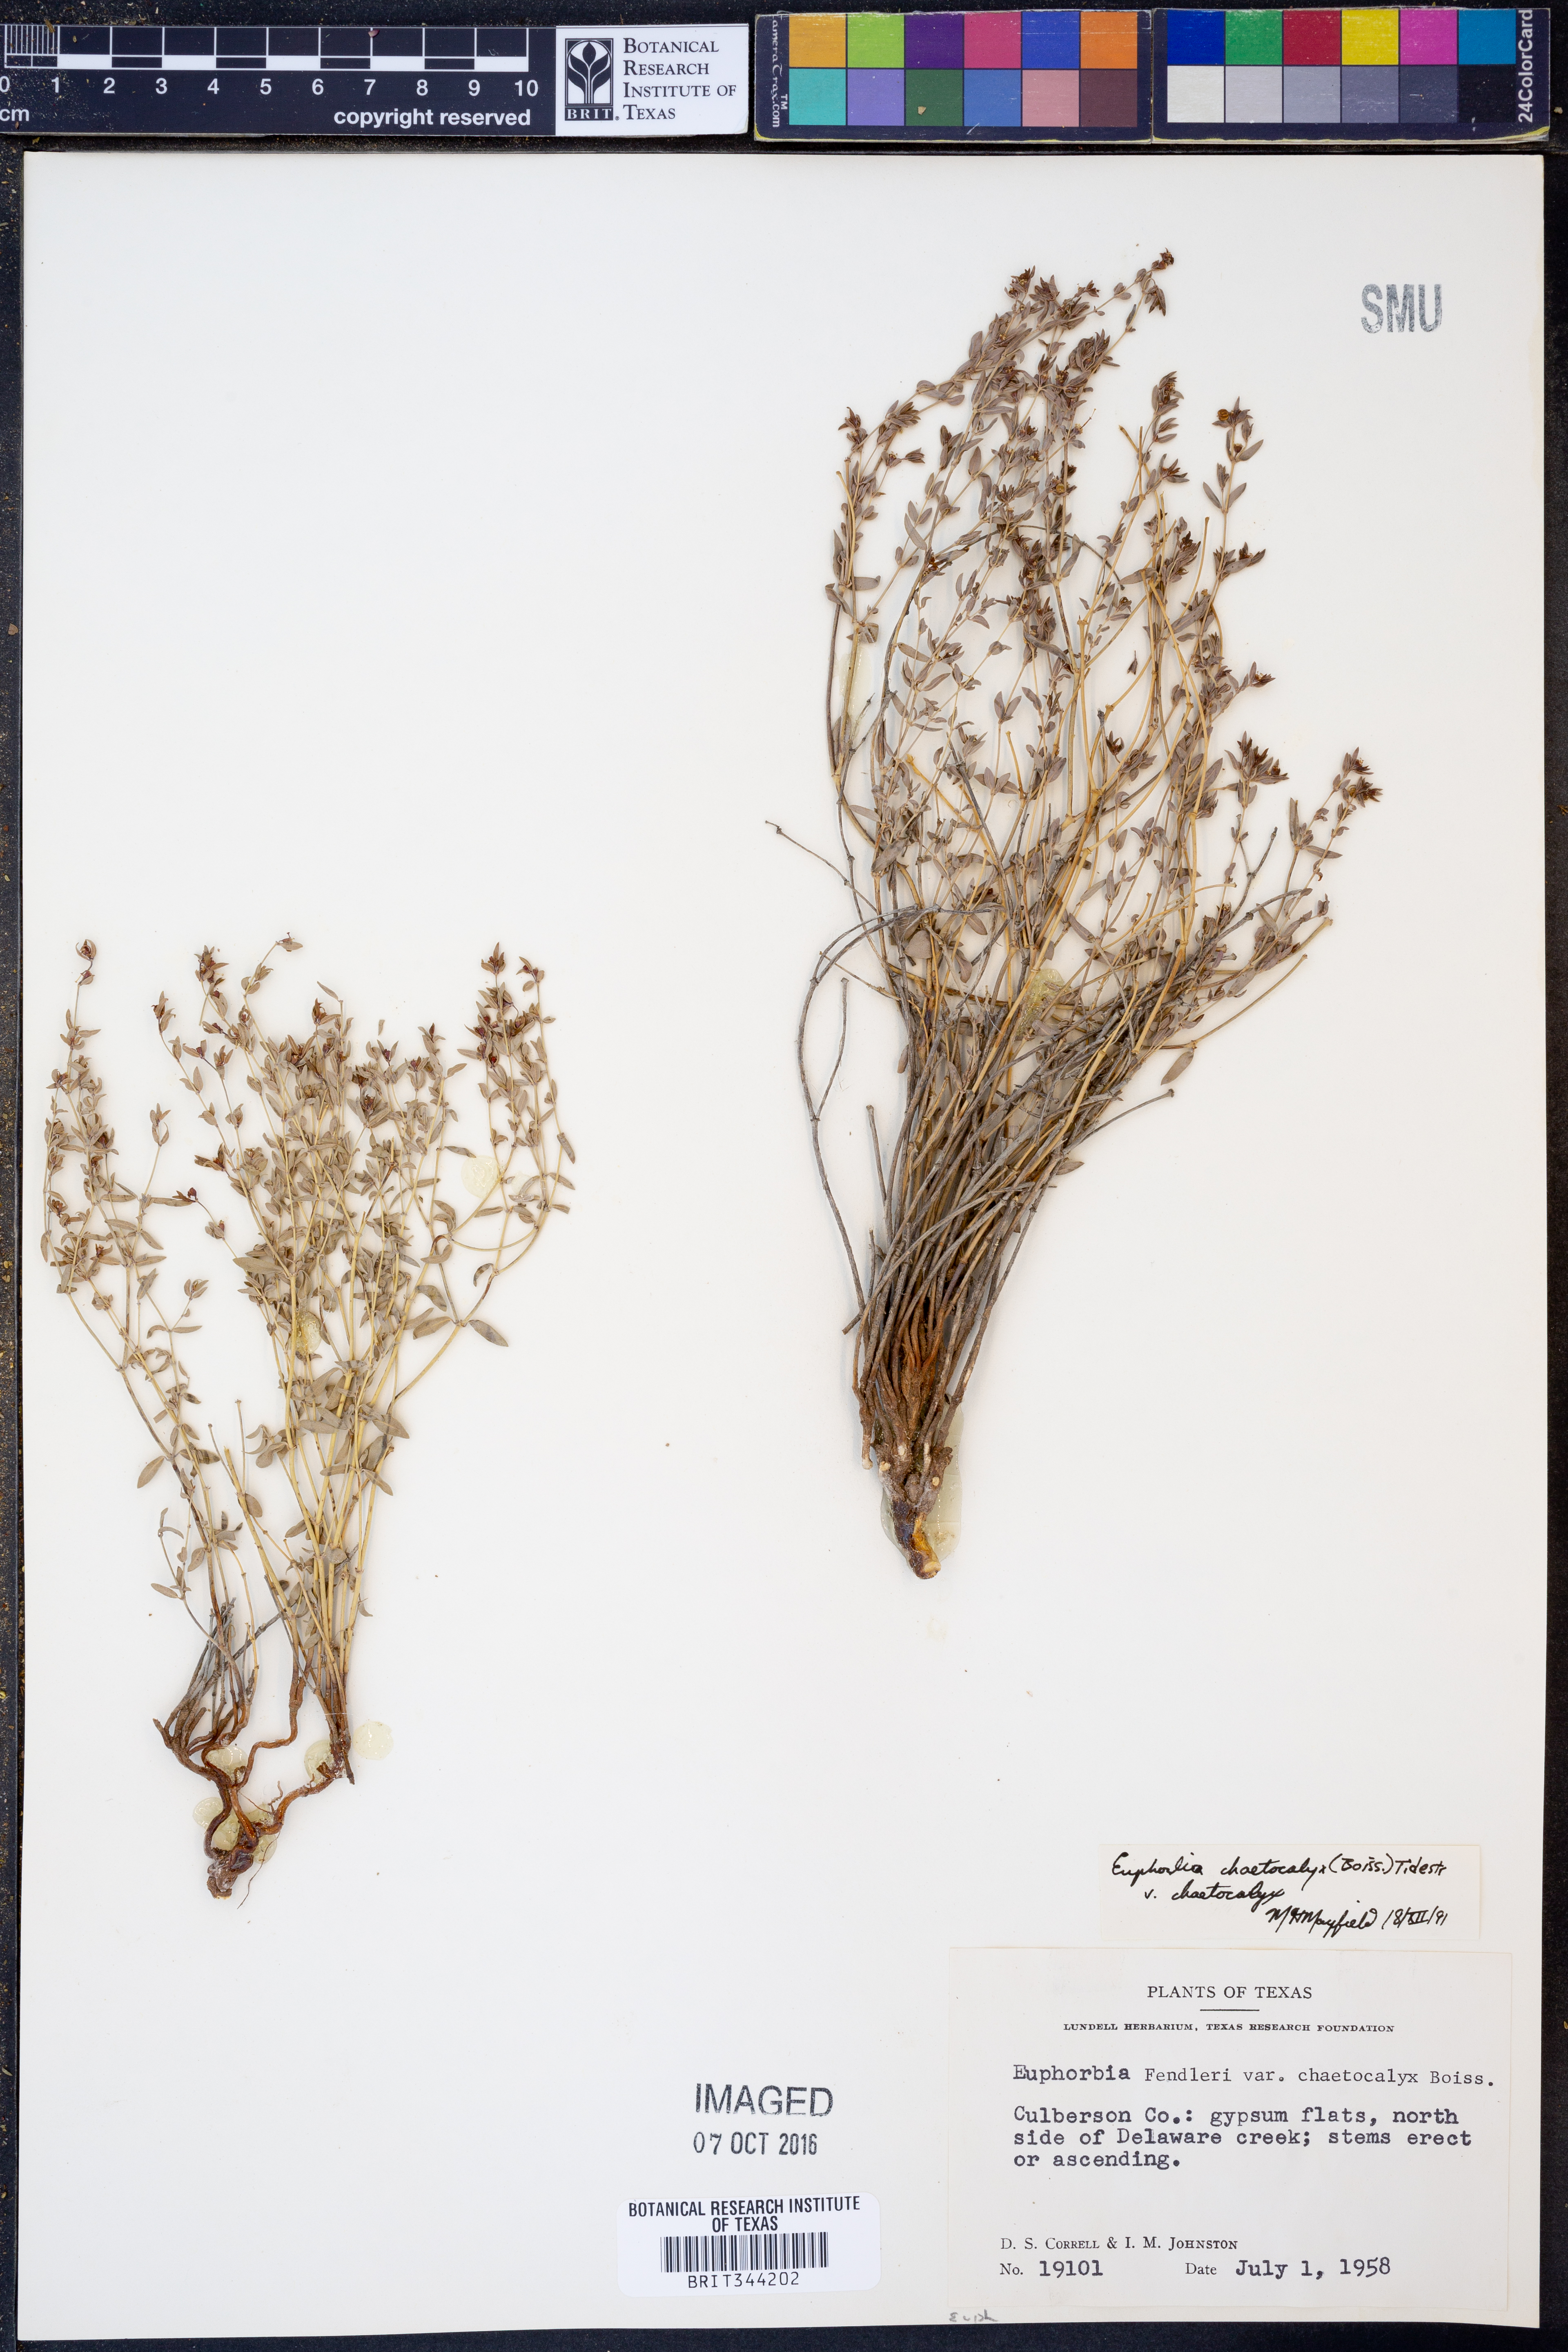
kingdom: Plantae
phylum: Tracheophyta
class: Magnoliopsida
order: Malpighiales
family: Euphorbiaceae
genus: Euphorbia
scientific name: Euphorbia chaetocalyx
